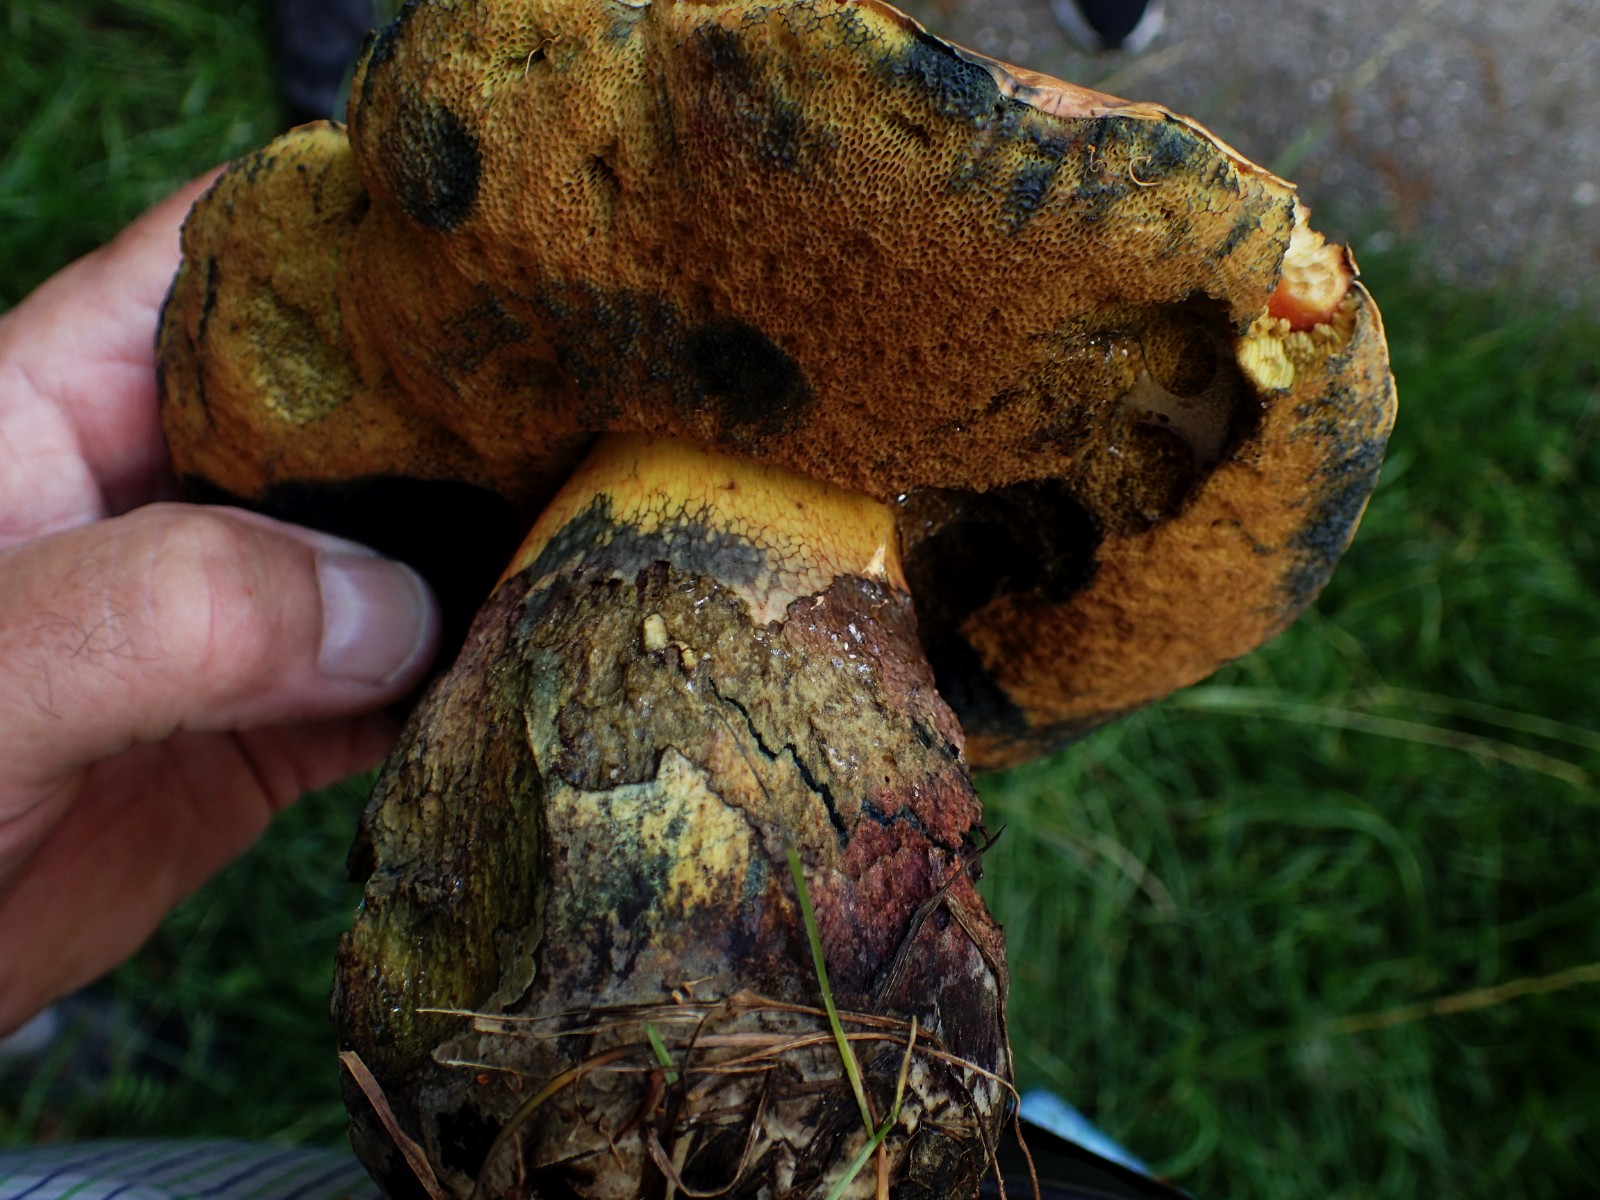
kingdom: Fungi
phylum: Basidiomycota
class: Agaricomycetes
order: Boletales
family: Boletaceae
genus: Suillellus
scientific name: Suillellus luridus
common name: netstokket indigorørhat
